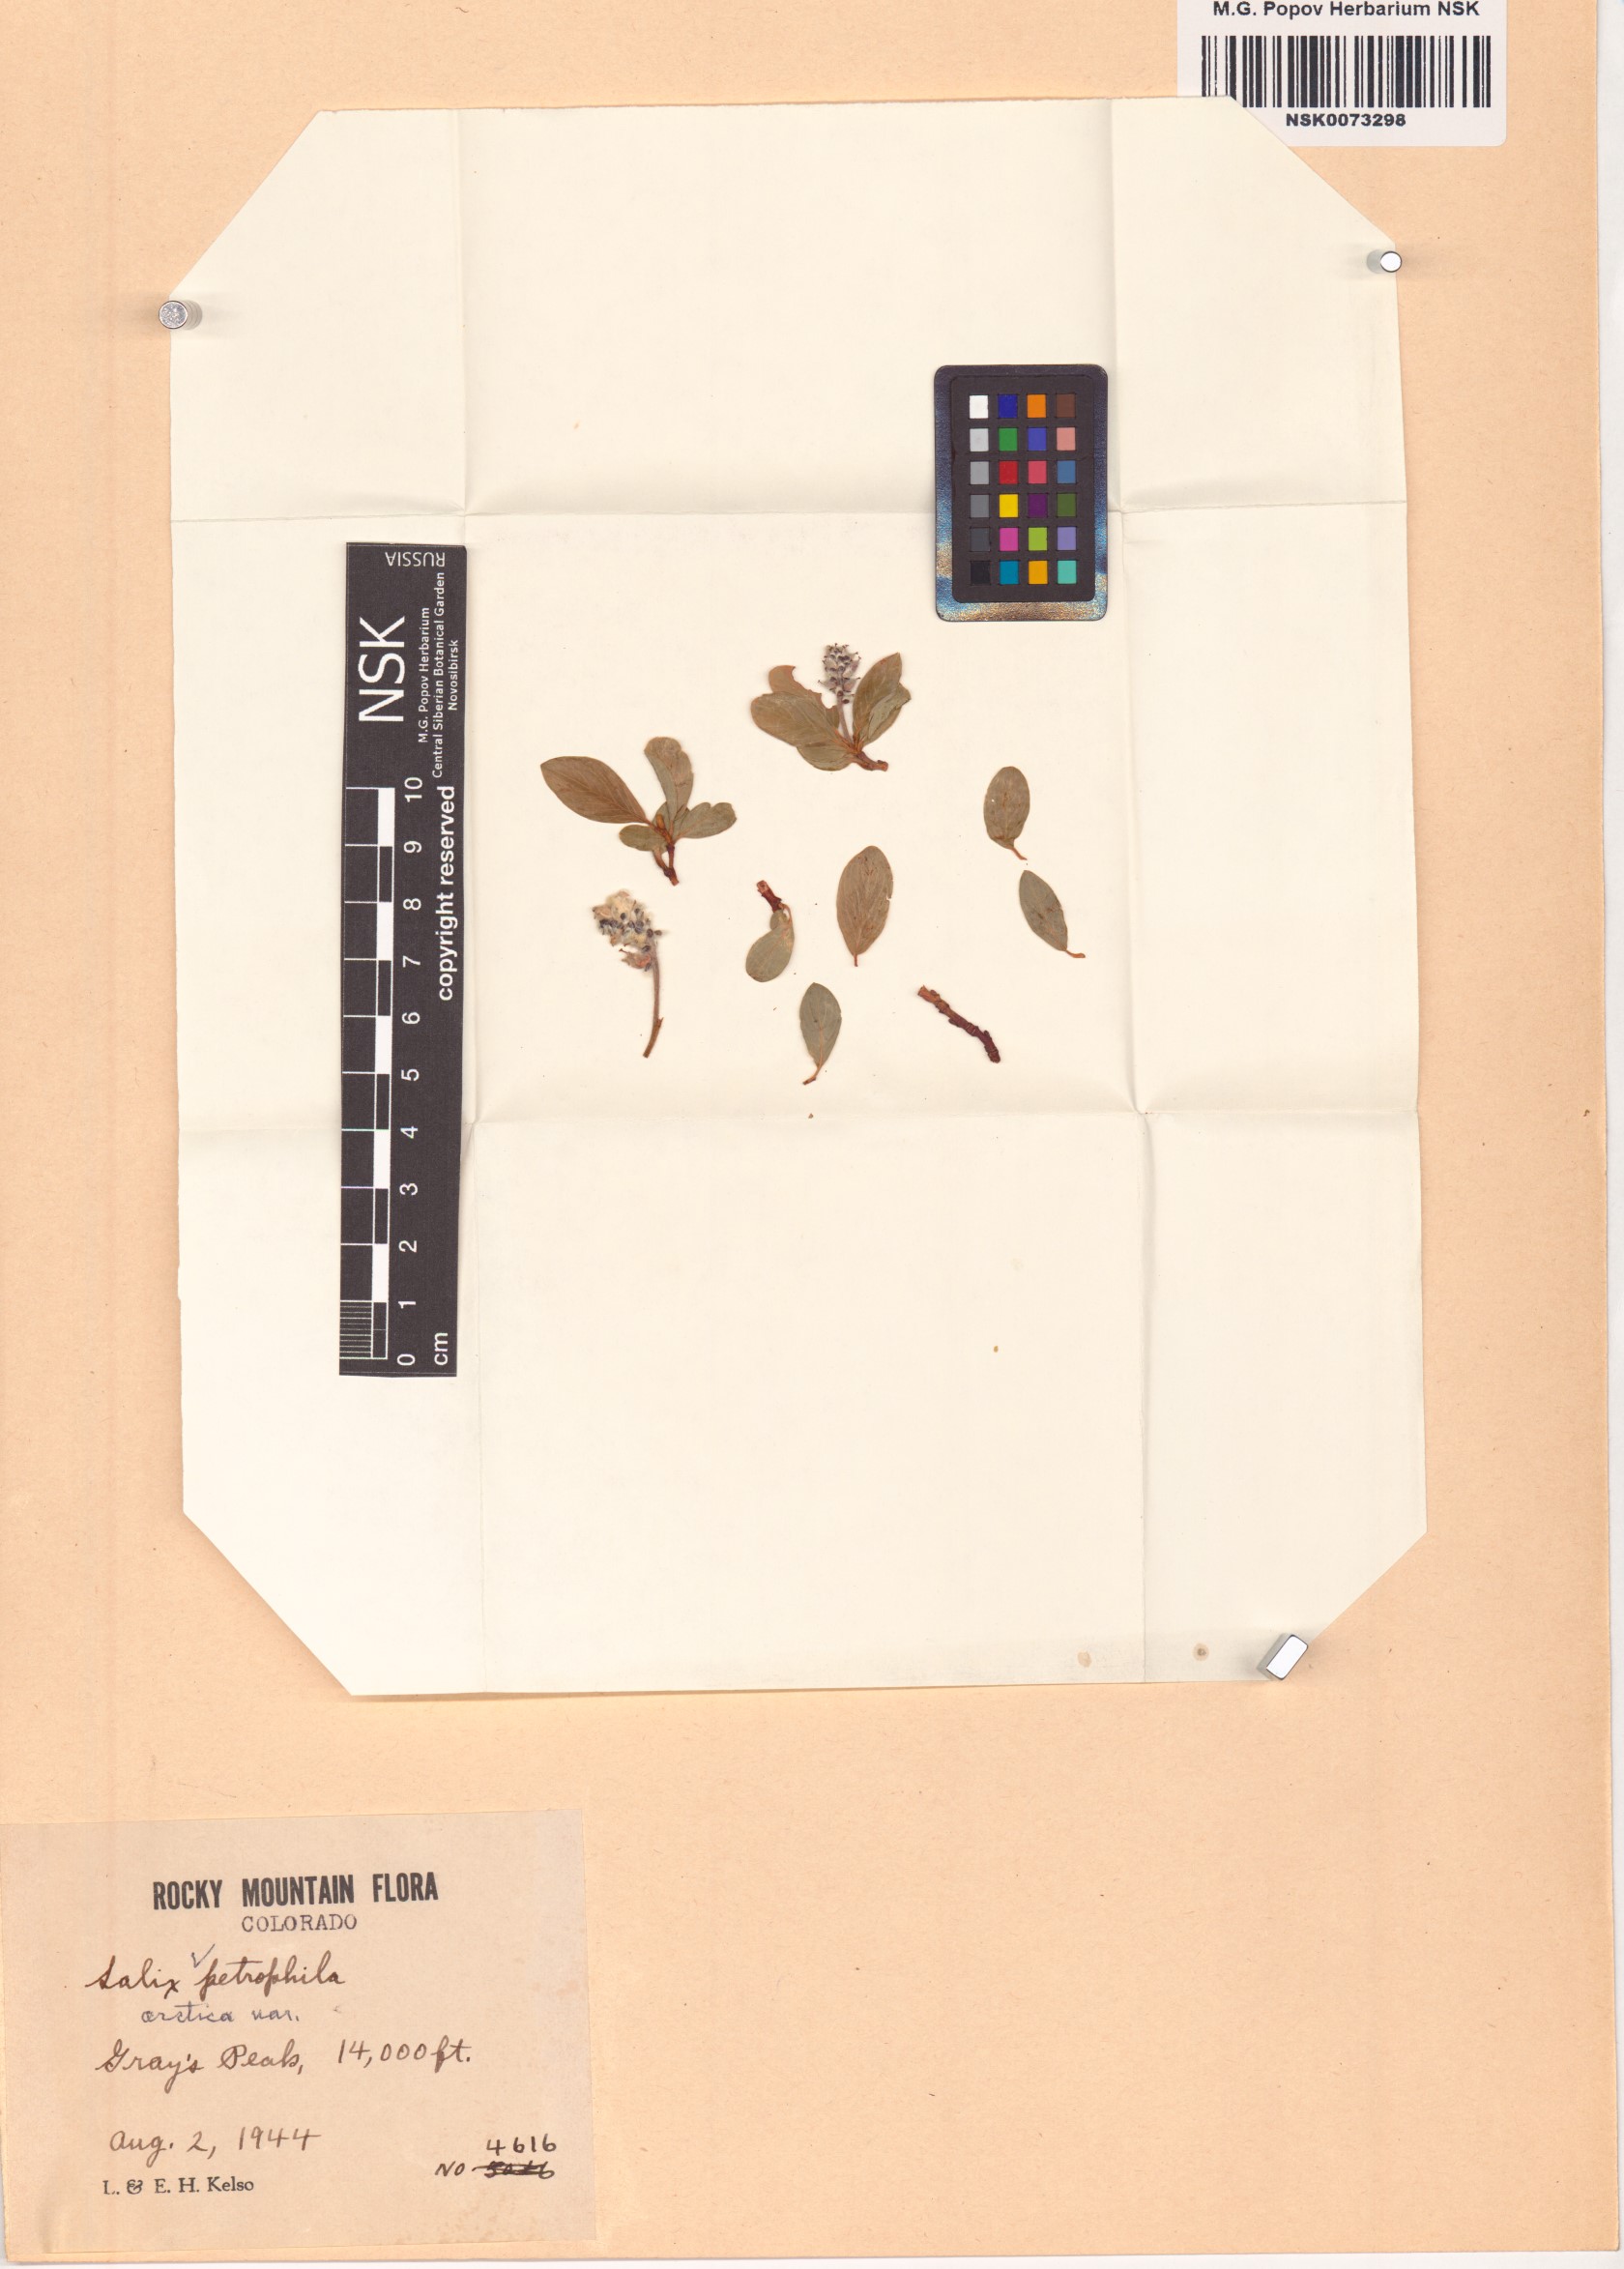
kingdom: Plantae
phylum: Tracheophyta
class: Magnoliopsida
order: Malpighiales
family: Salicaceae
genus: Salix
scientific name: Salix petrophila
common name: Rocky mountain willow
